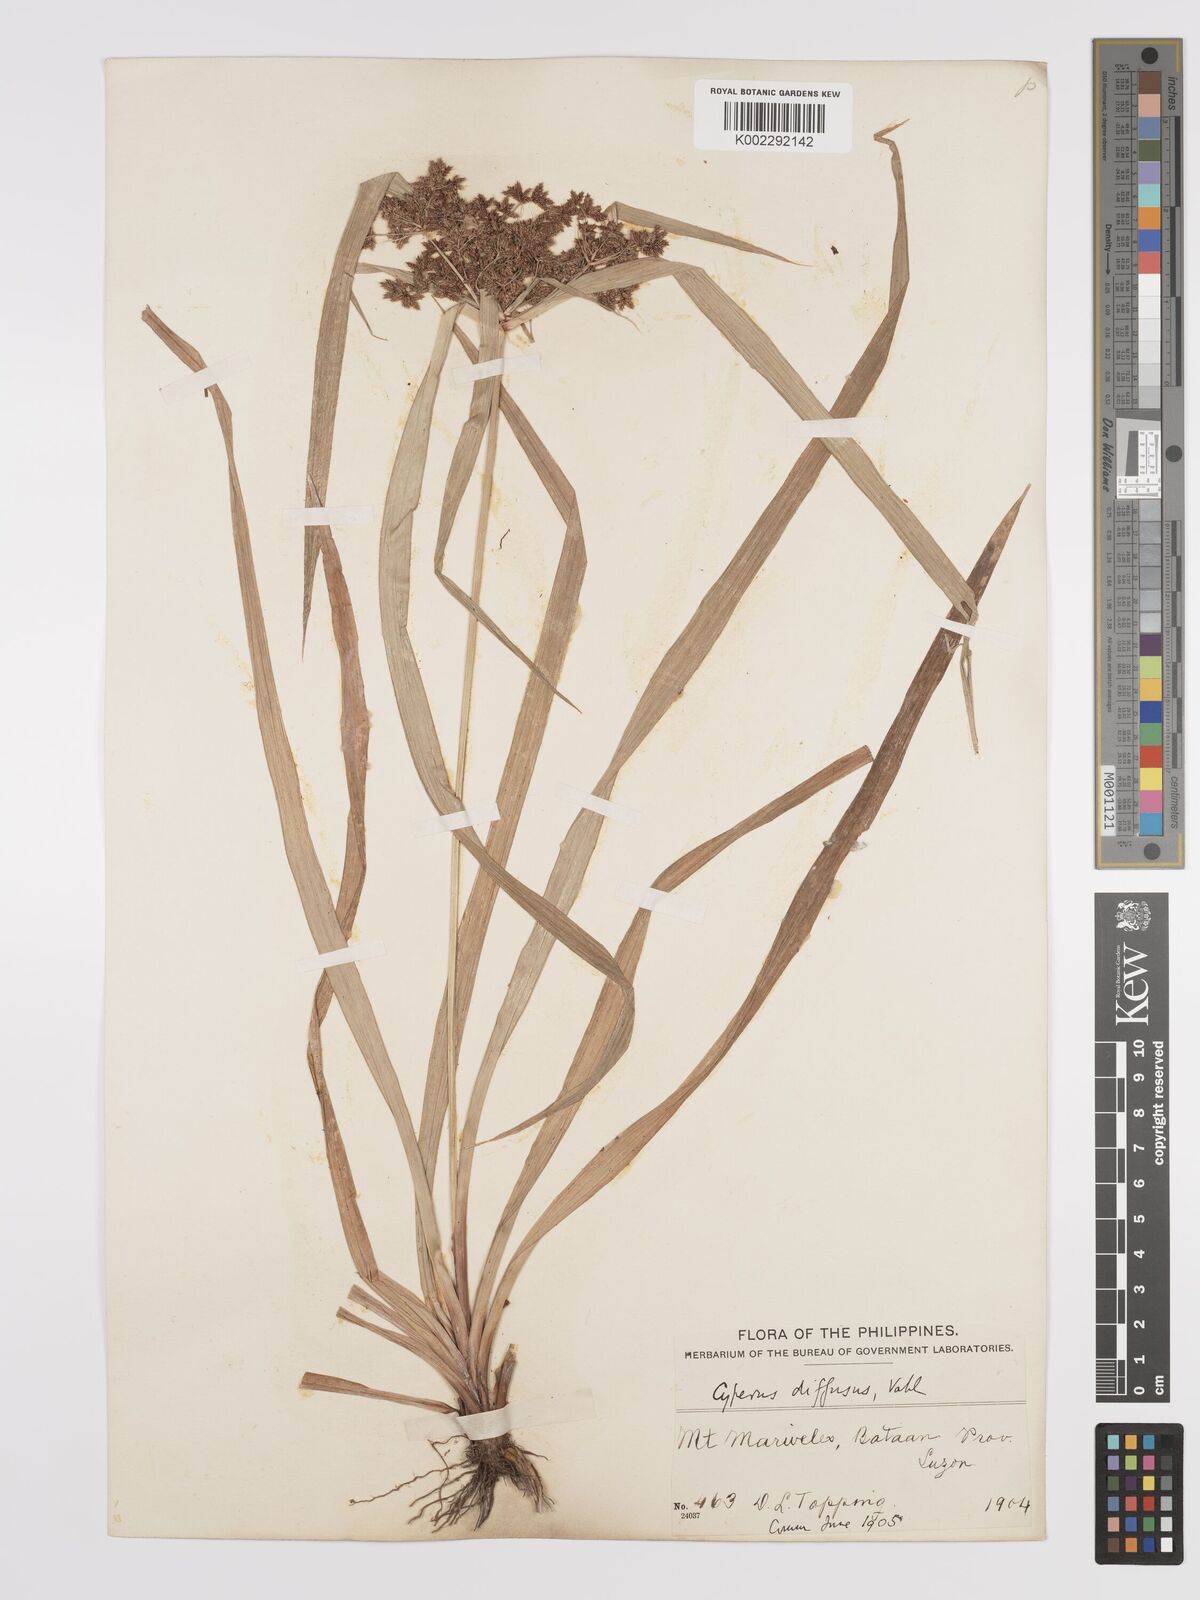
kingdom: Plantae
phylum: Tracheophyta
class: Liliopsida
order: Poales
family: Cyperaceae
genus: Cyperus
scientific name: Cyperus diffusus
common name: Dwarf umbrella grass
